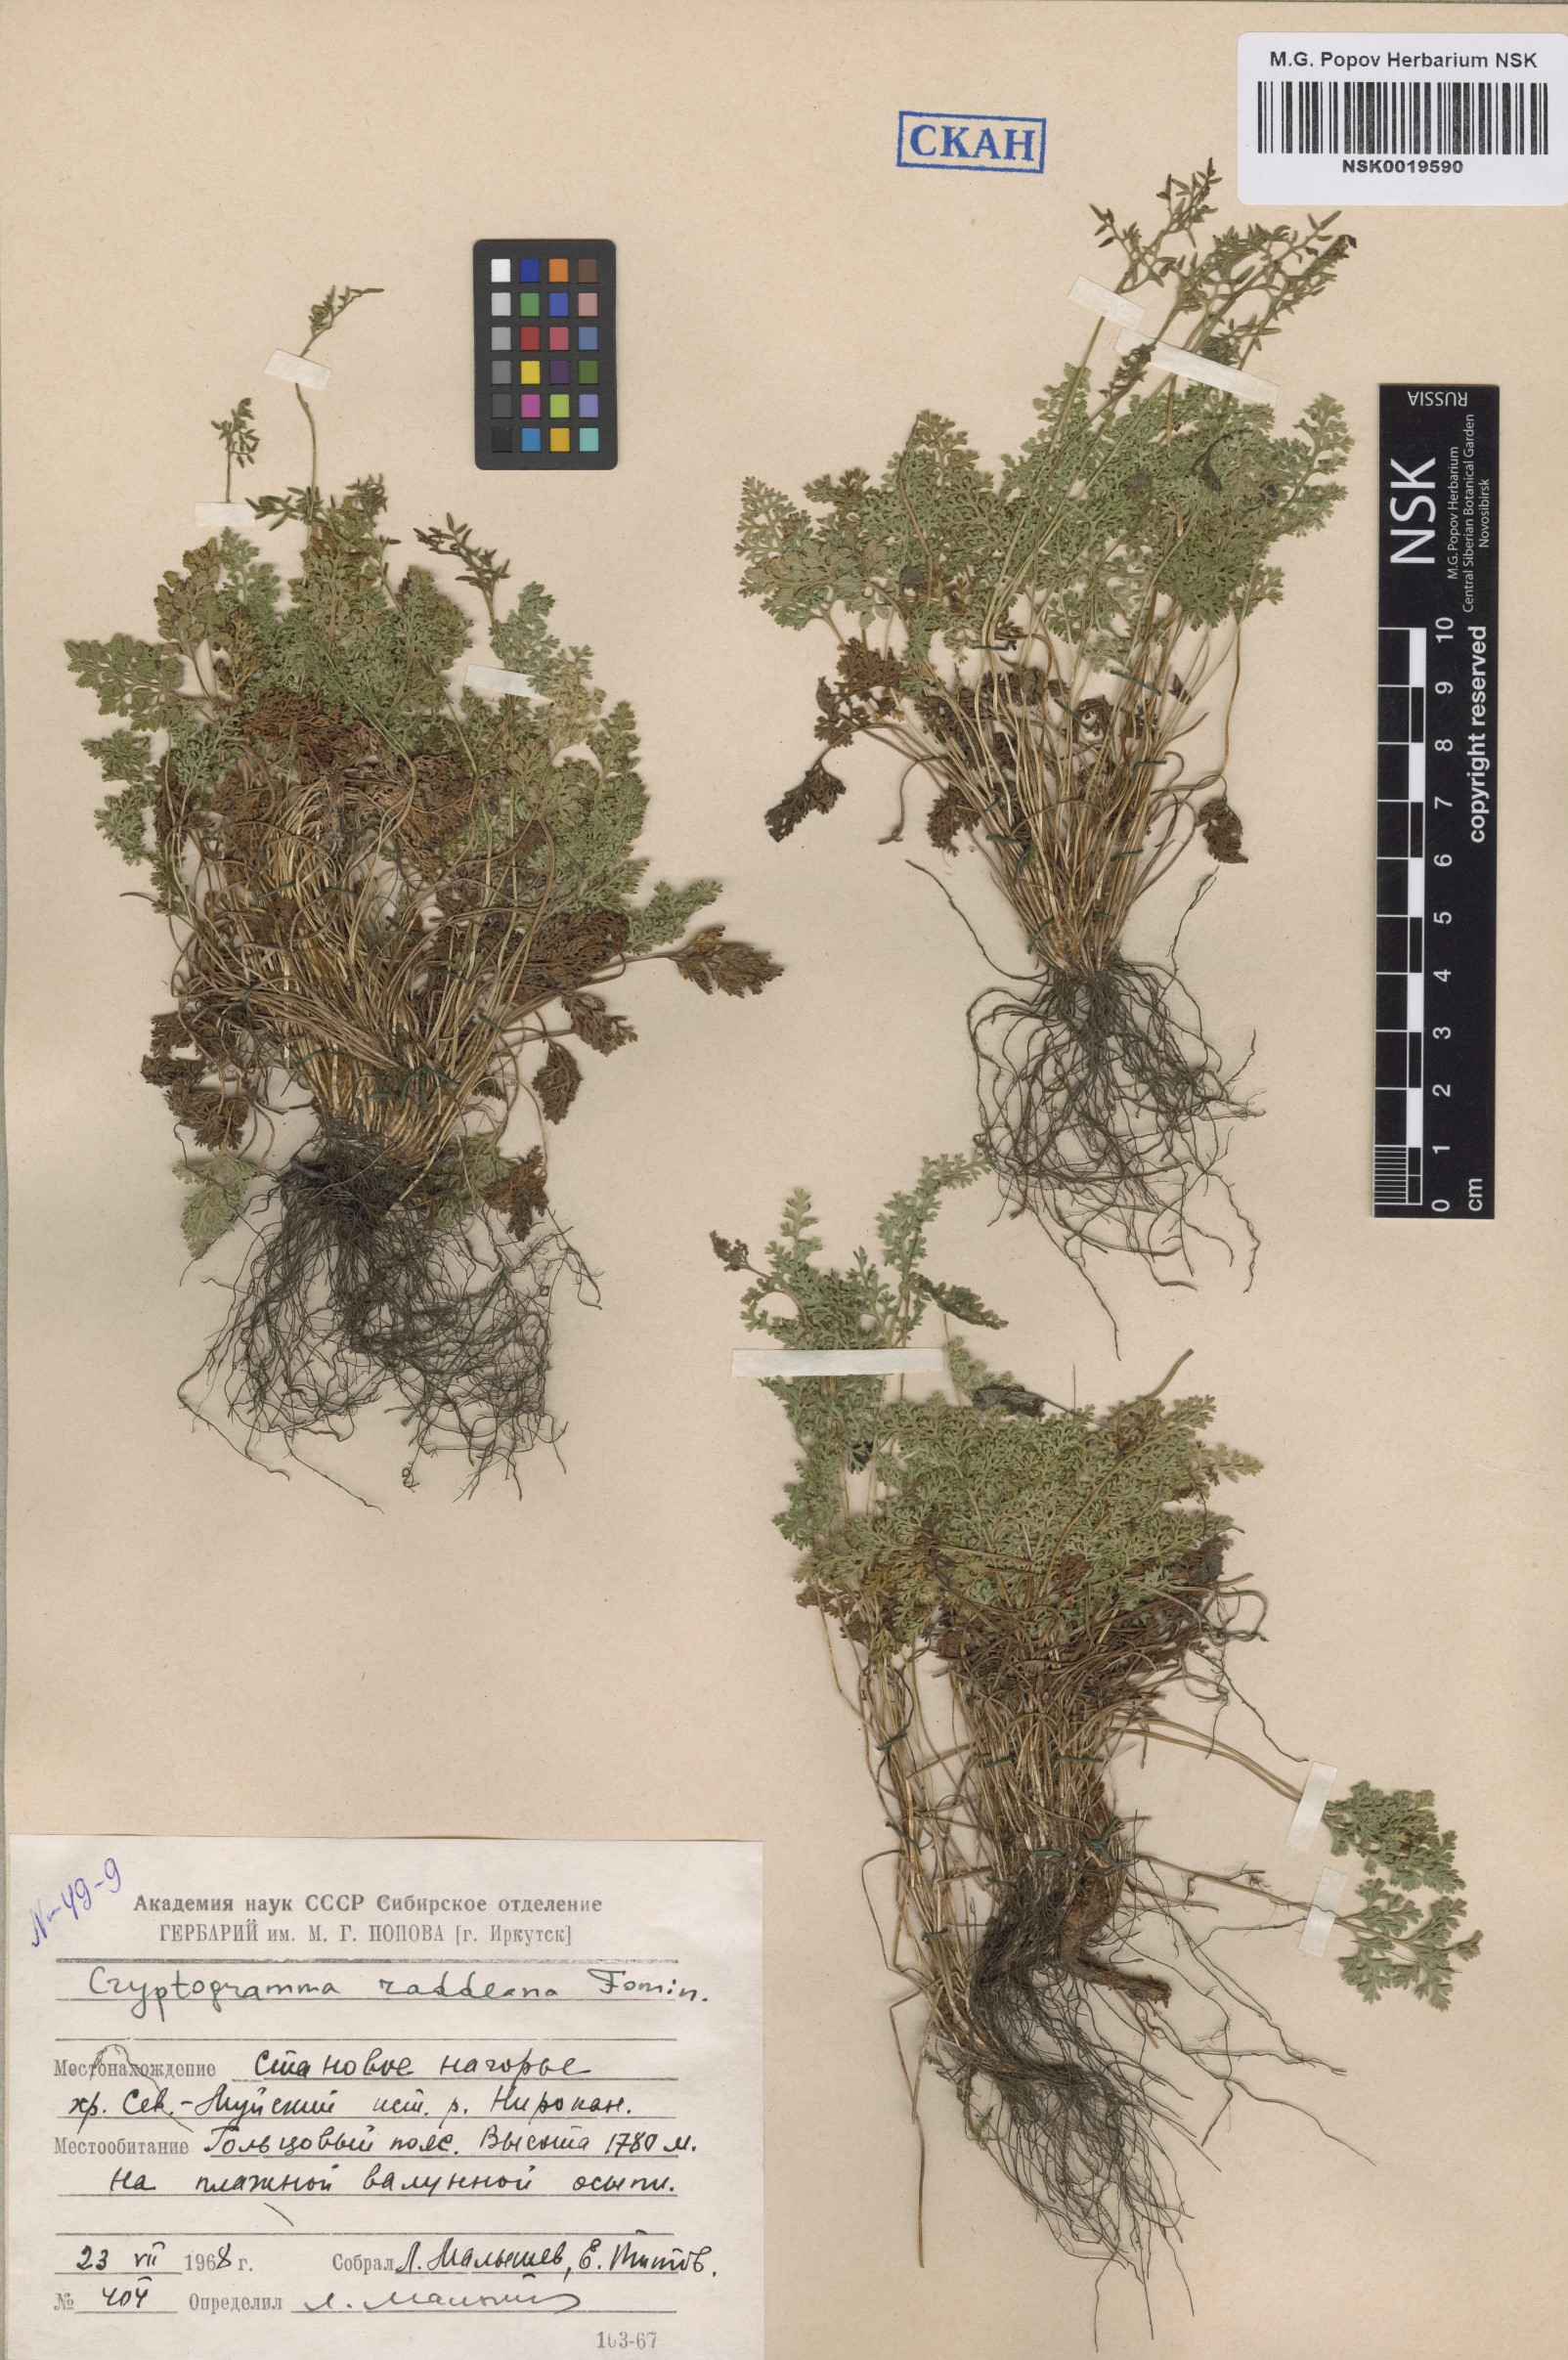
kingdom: Plantae
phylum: Tracheophyta
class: Polypodiopsida
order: Polypodiales
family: Pteridaceae
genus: Cryptogramma
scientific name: Cryptogramma brunoniana
